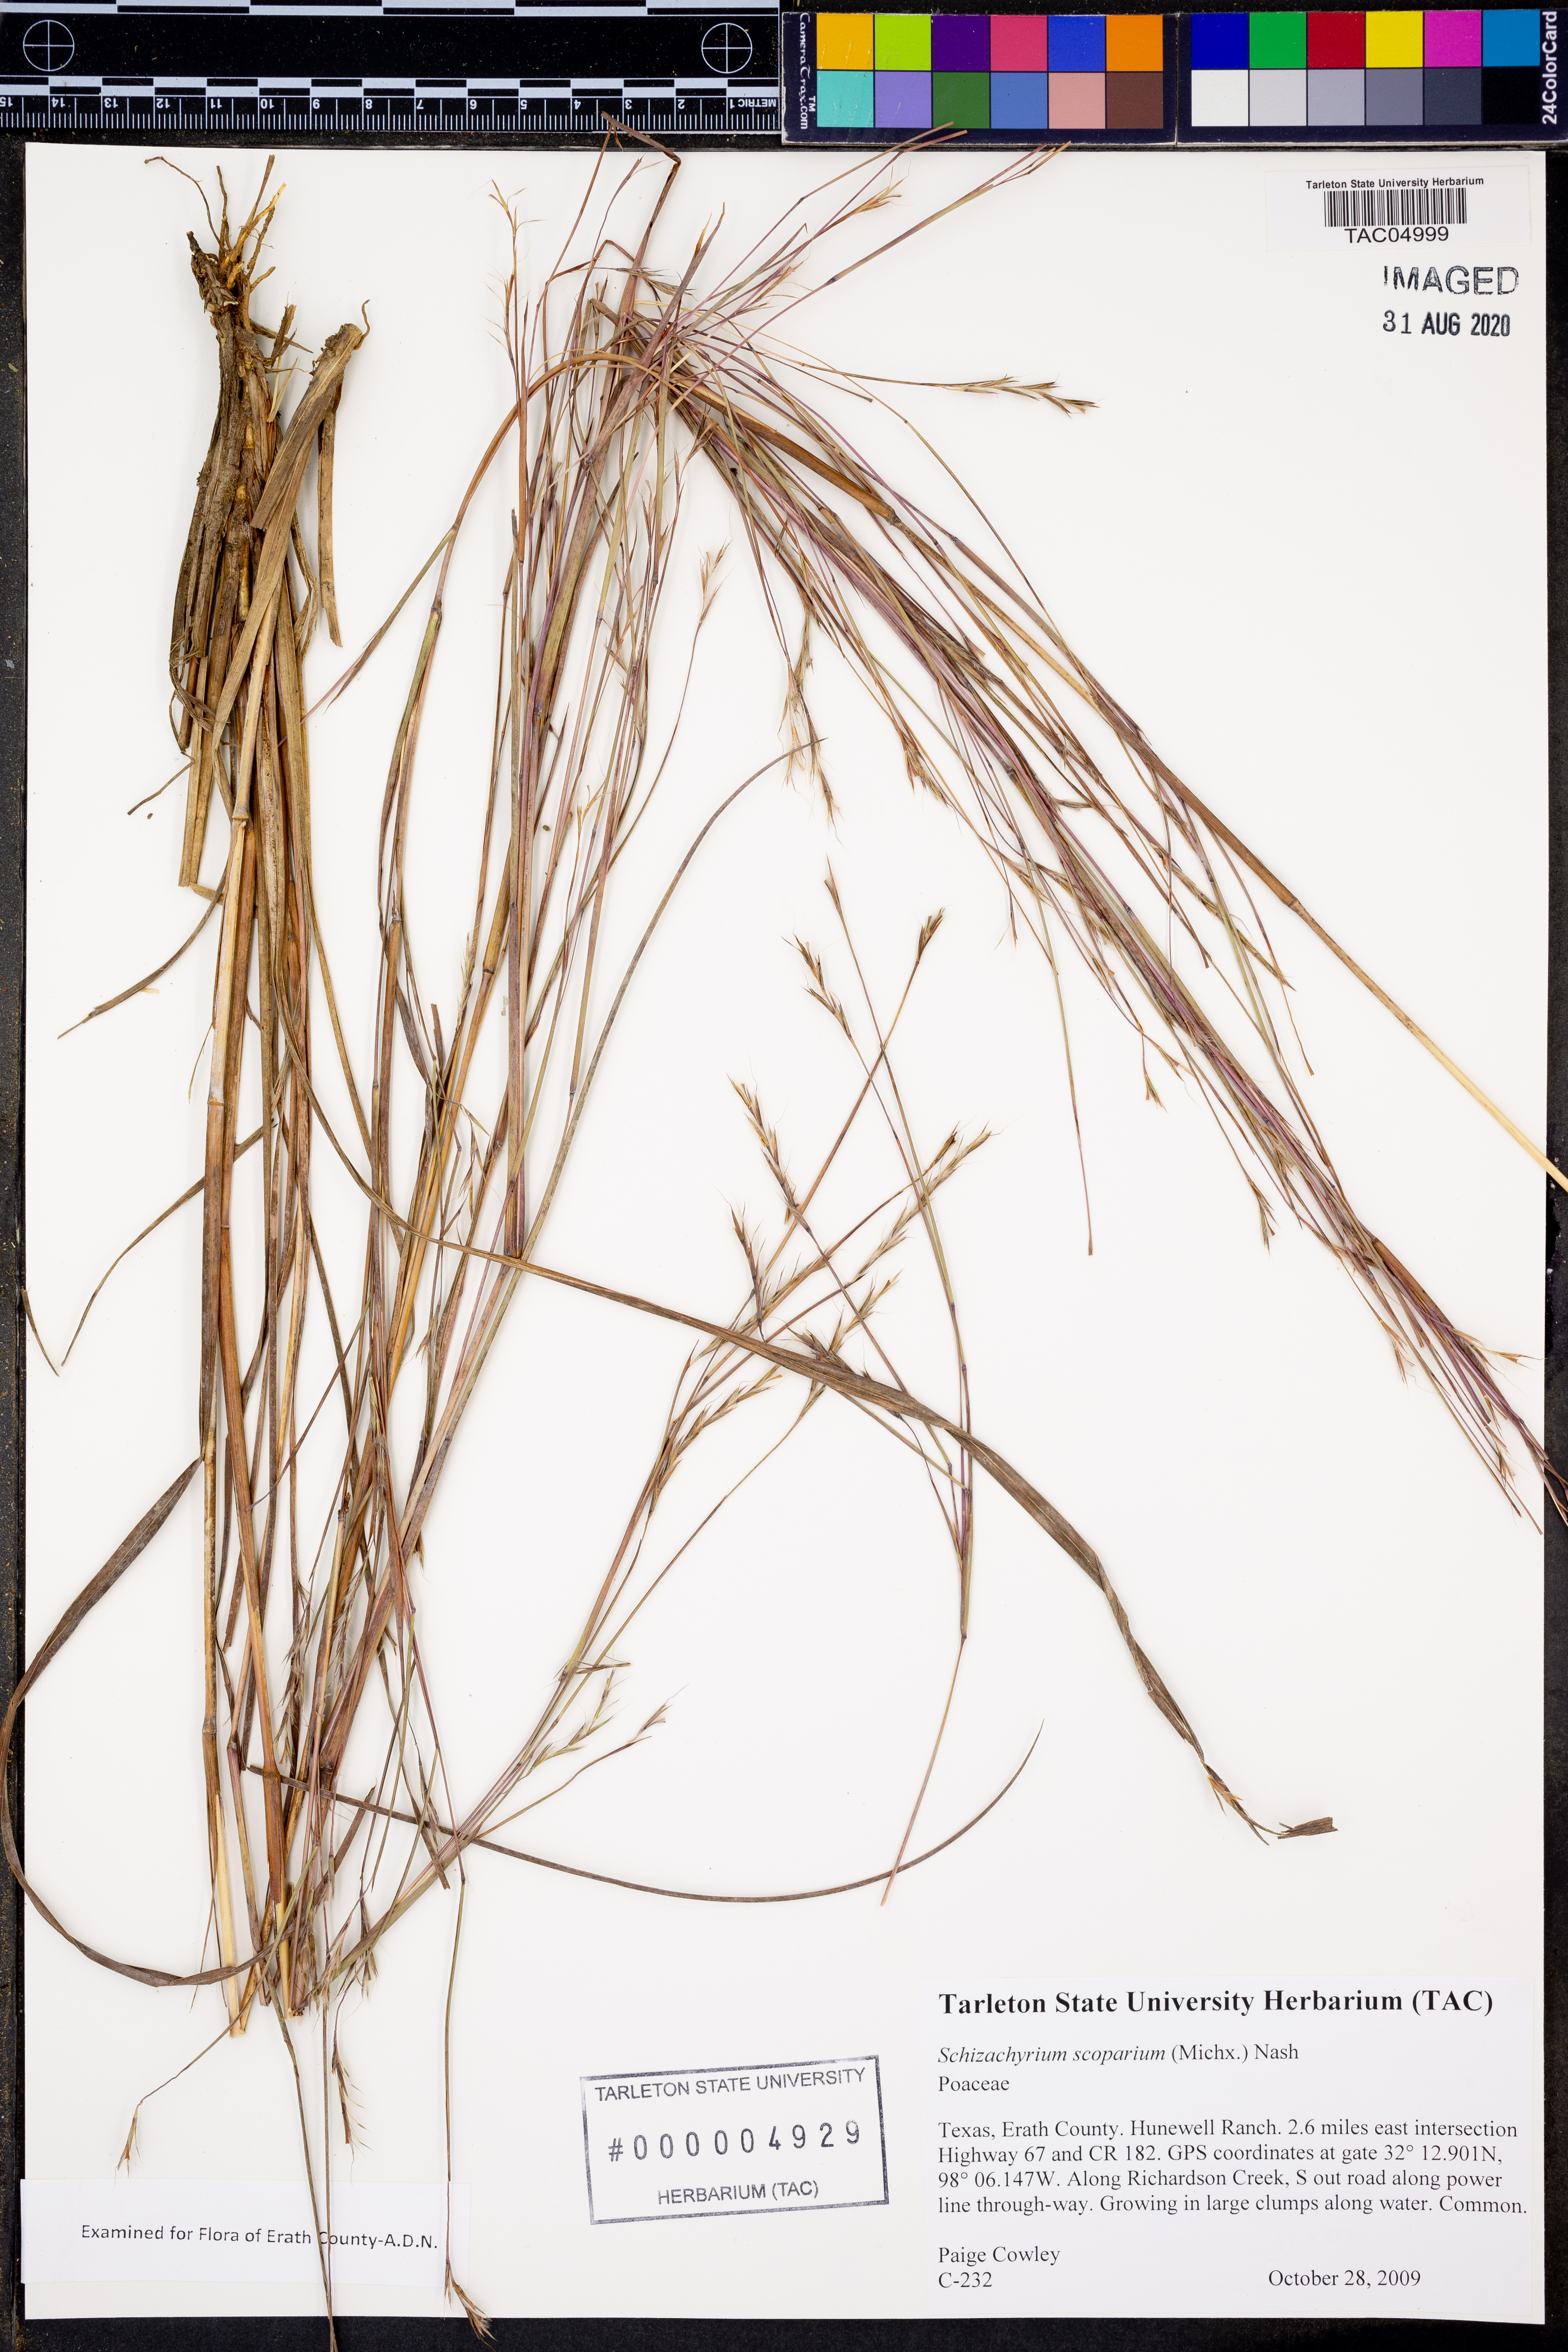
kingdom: Plantae
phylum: Tracheophyta
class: Liliopsida
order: Poales
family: Poaceae
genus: Schizachyrium
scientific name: Schizachyrium scoparium
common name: Little bluestem
